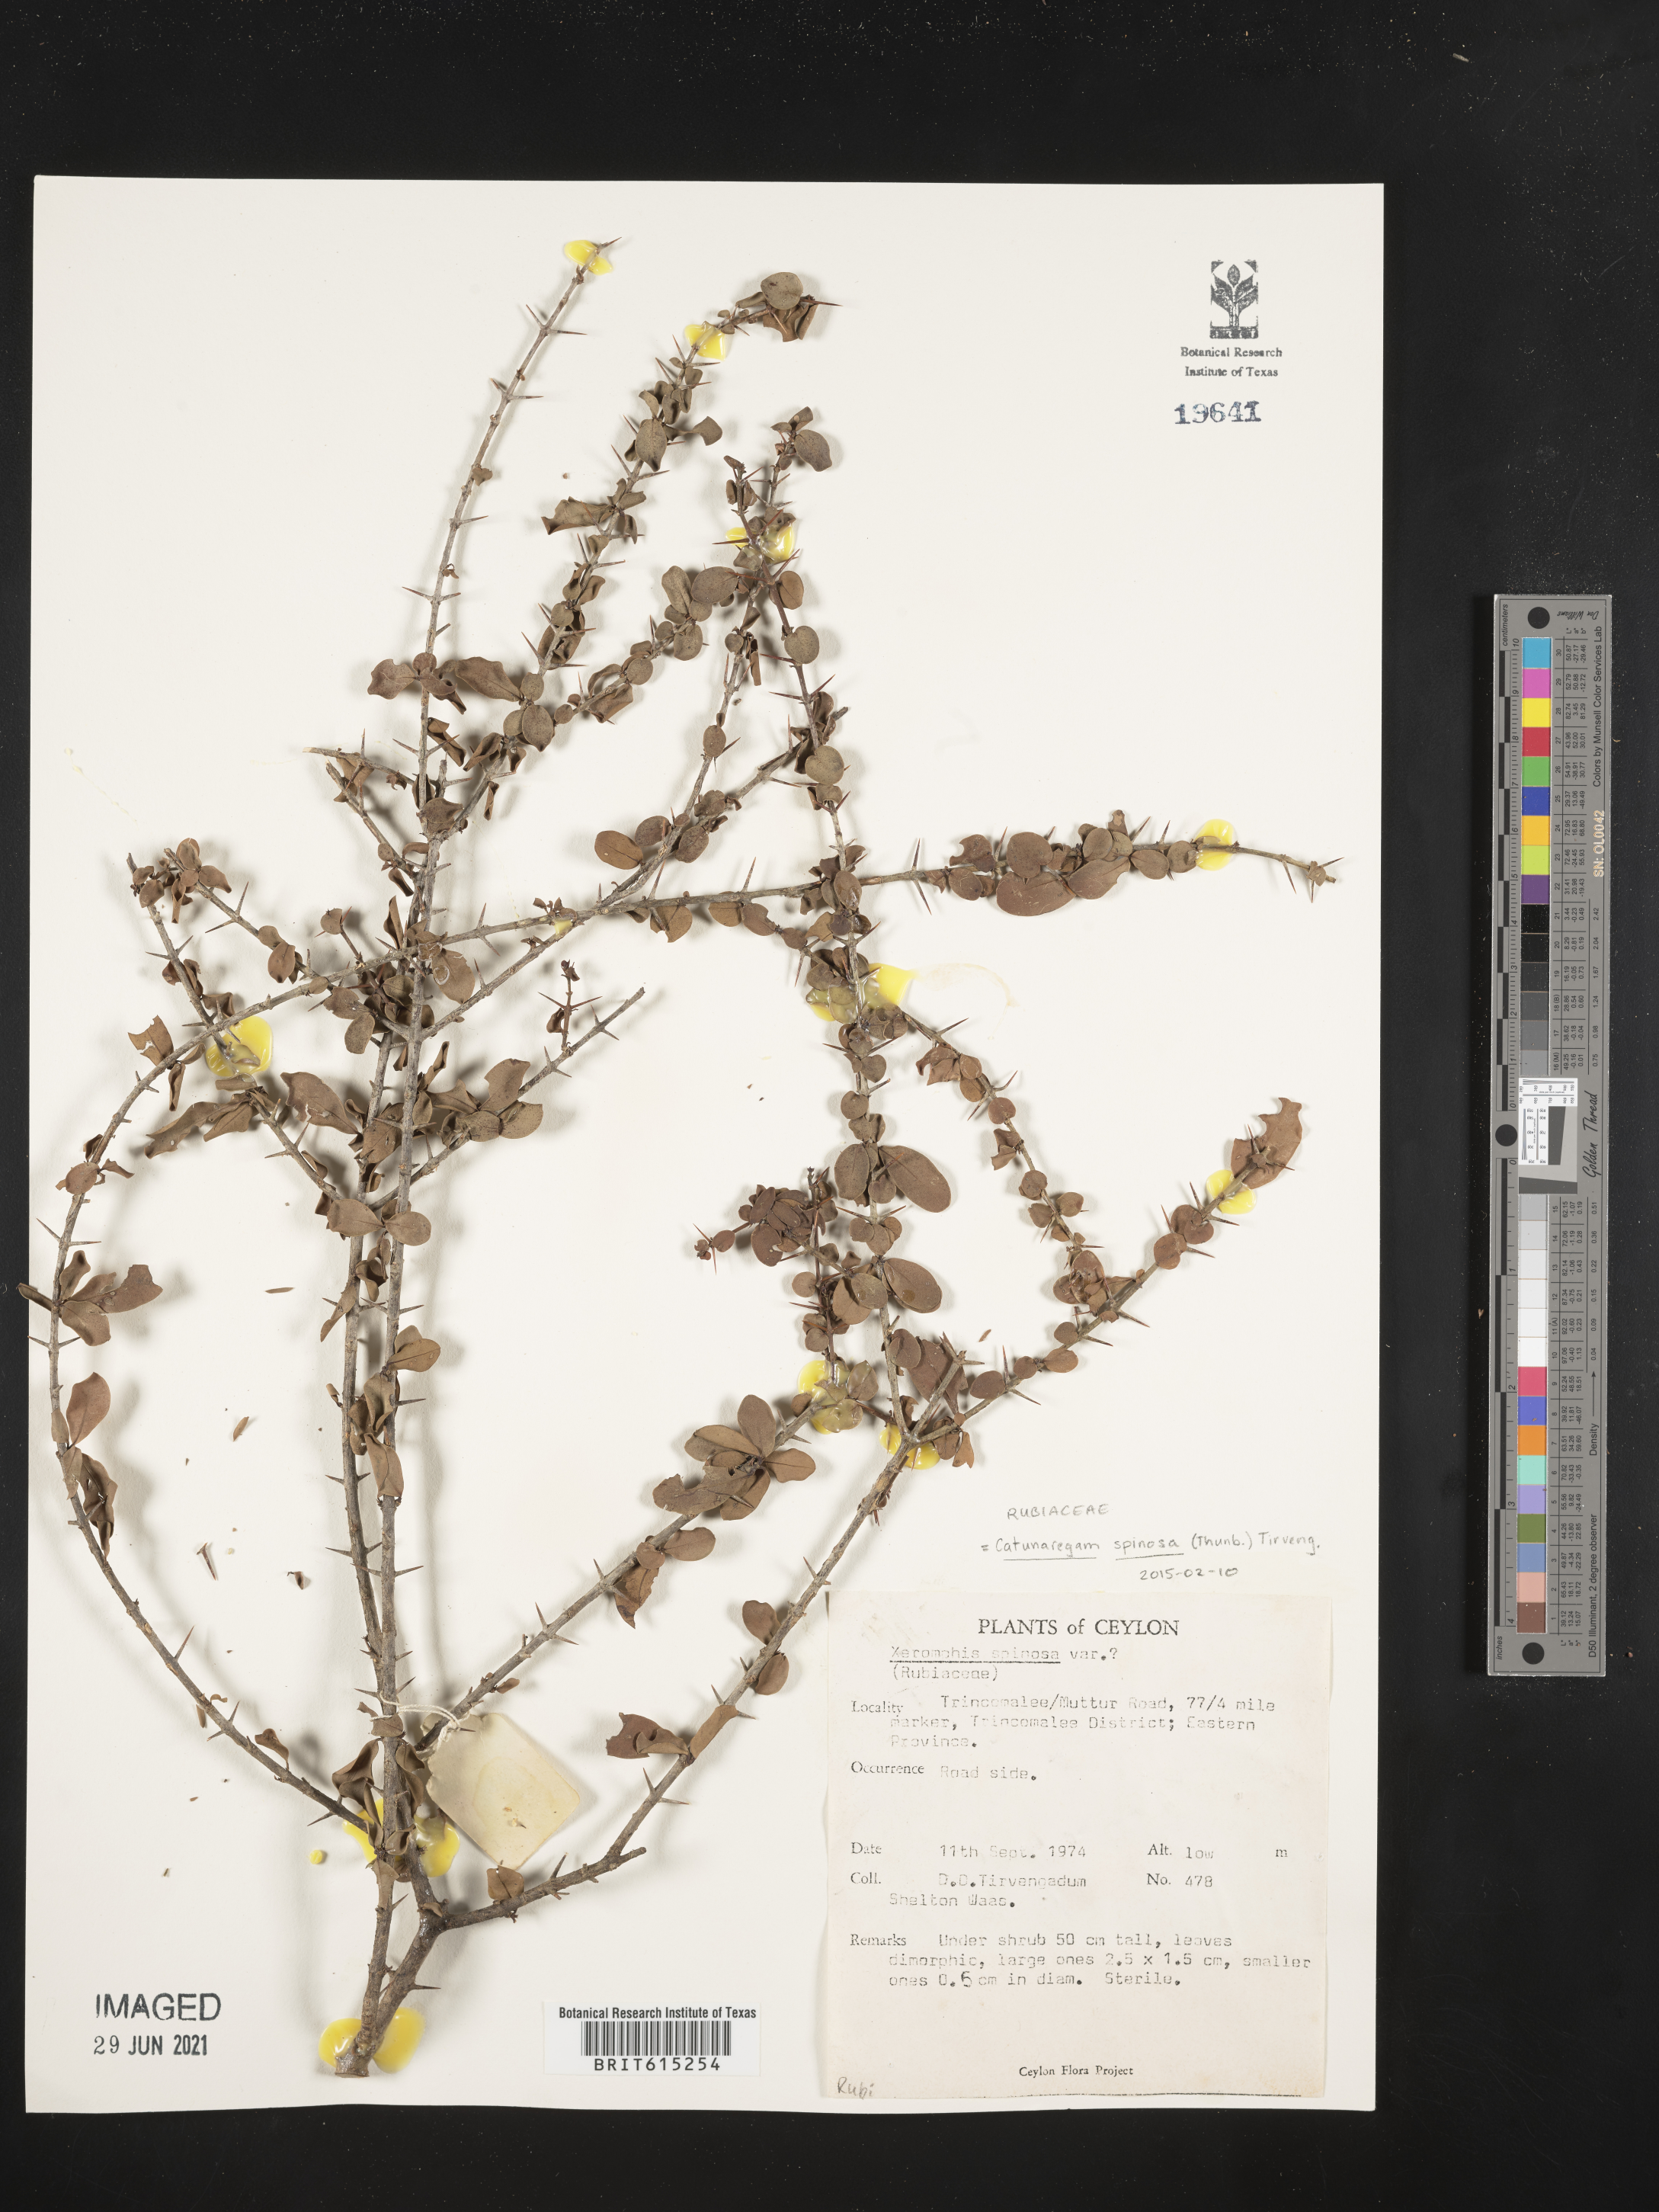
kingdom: Plantae
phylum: Tracheophyta
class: Magnoliopsida
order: Gentianales
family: Rubiaceae
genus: Catunaregam
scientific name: Catunaregam spinosa
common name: Emetic-nut
